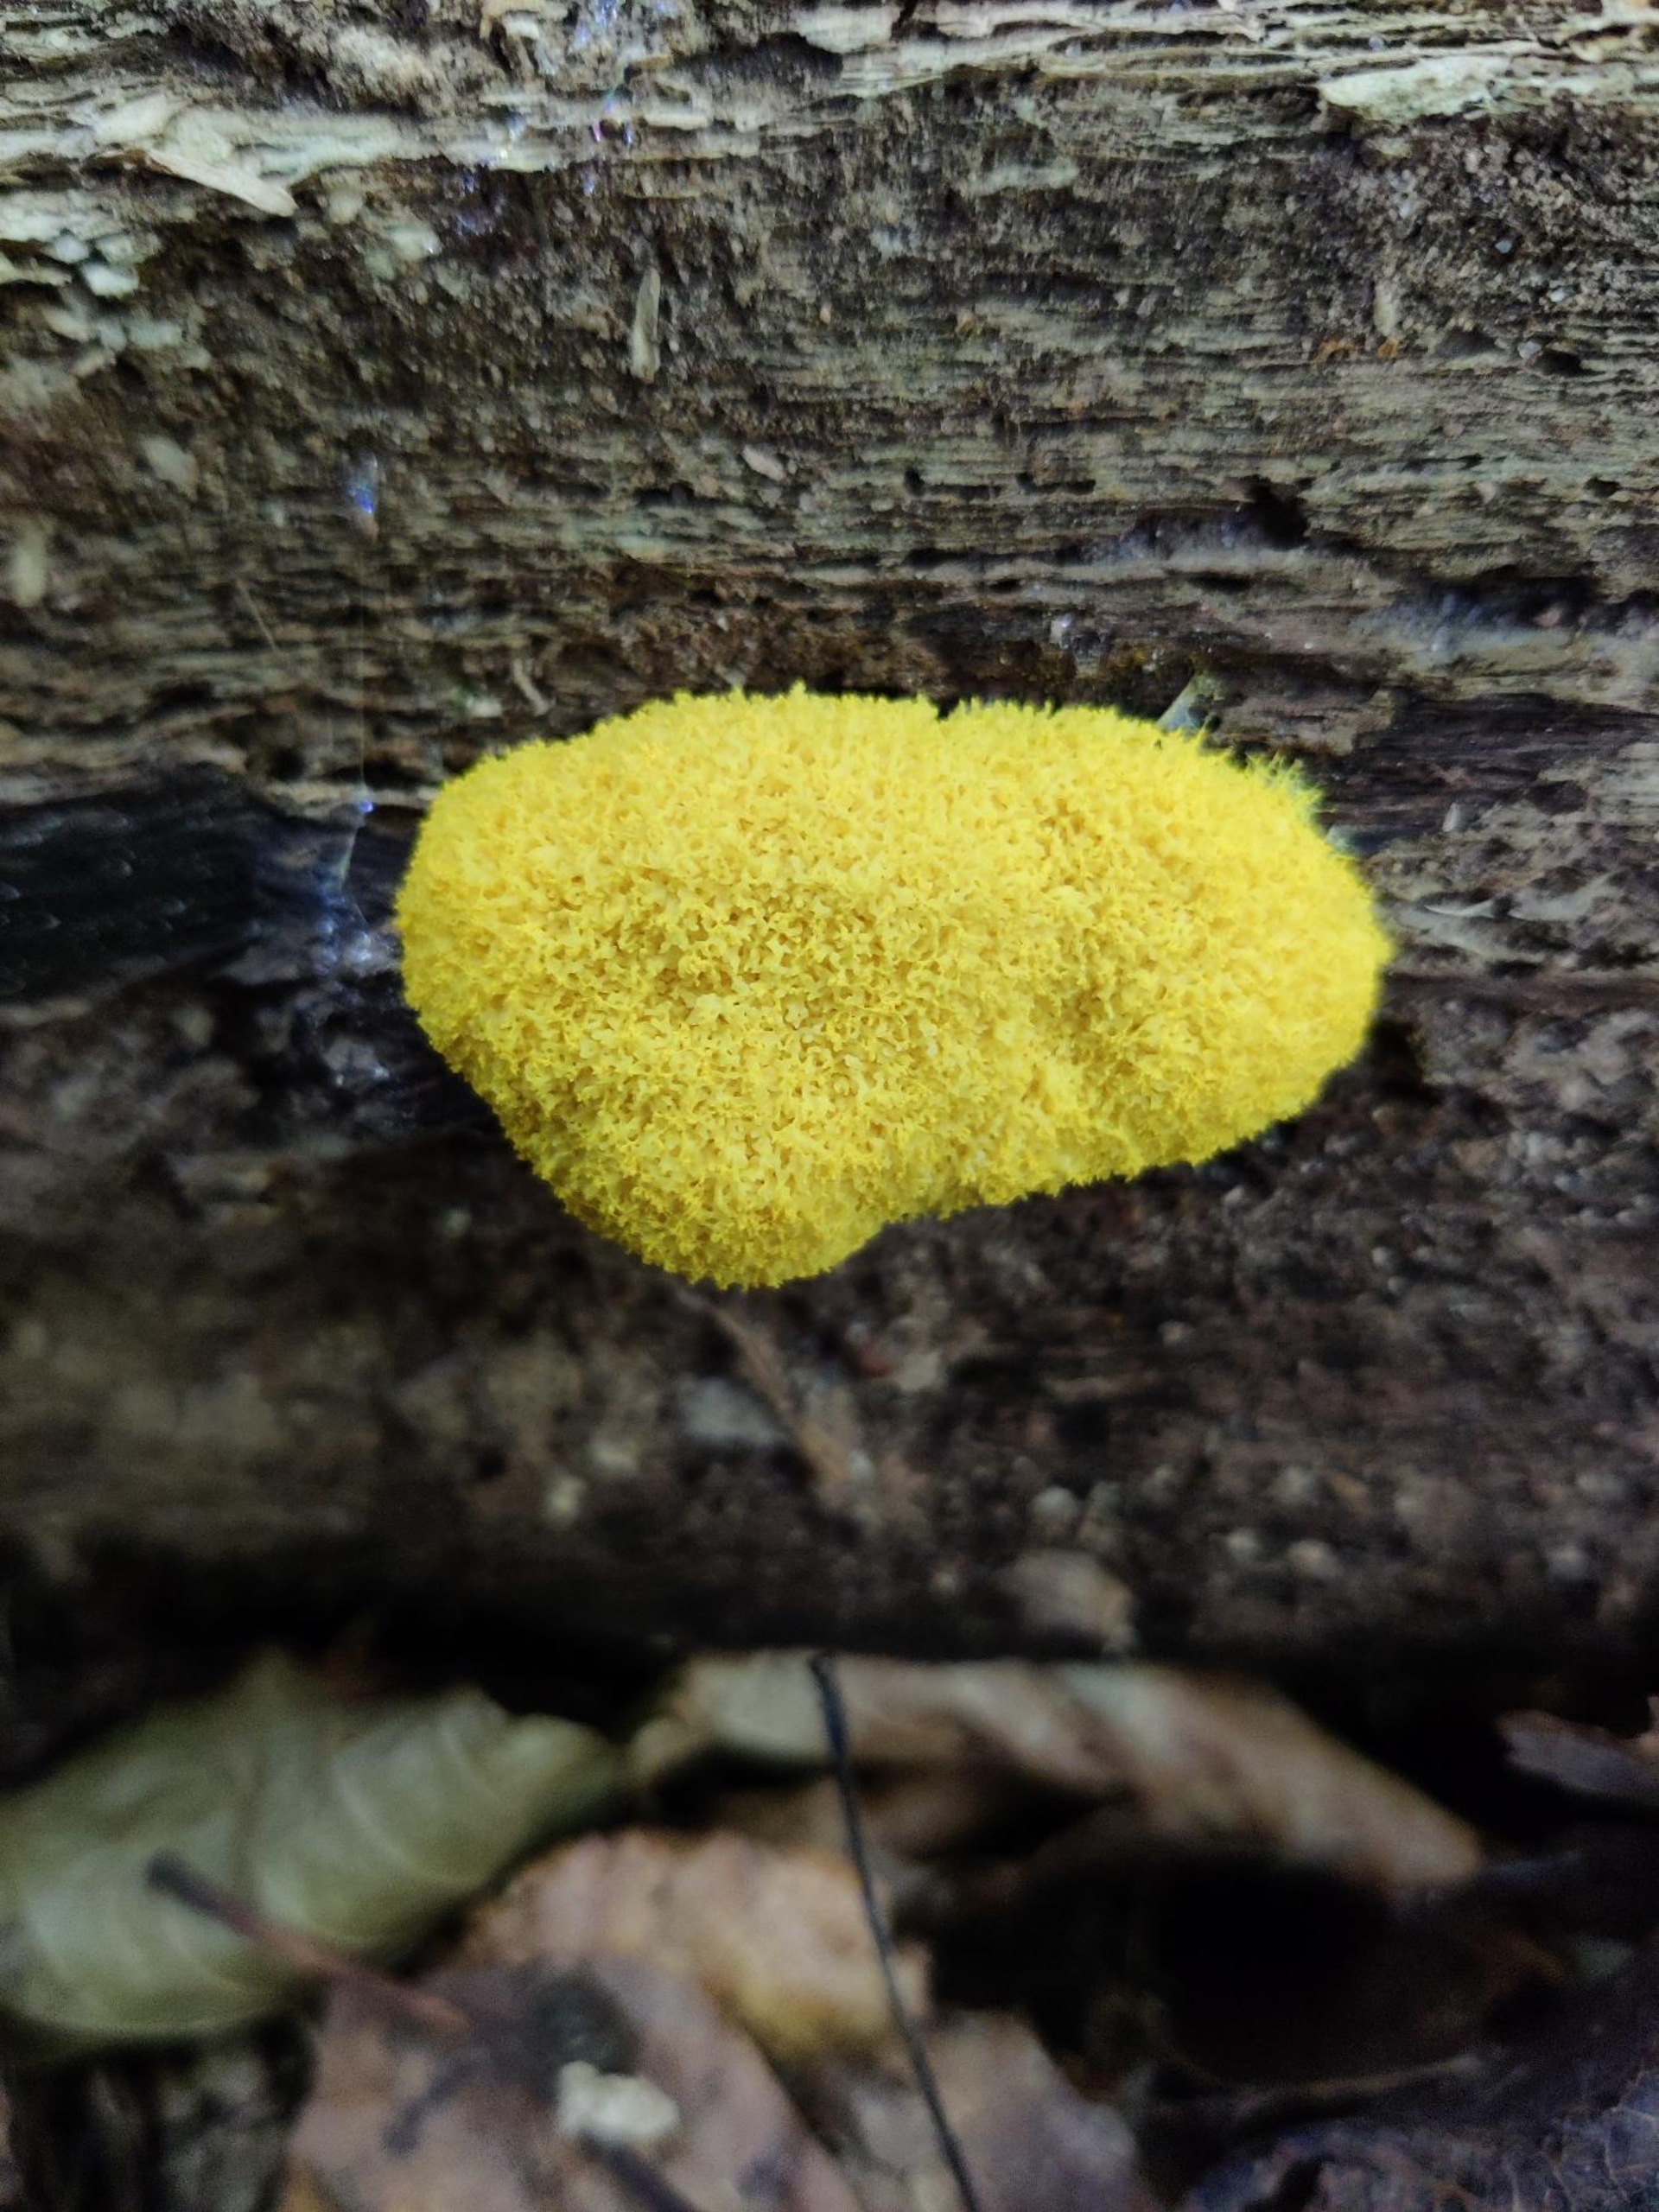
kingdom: Protozoa
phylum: Mycetozoa
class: Myxomycetes
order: Physarales
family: Physaraceae
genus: Fuligo
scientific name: Fuligo septica
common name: Gul troldsmør
